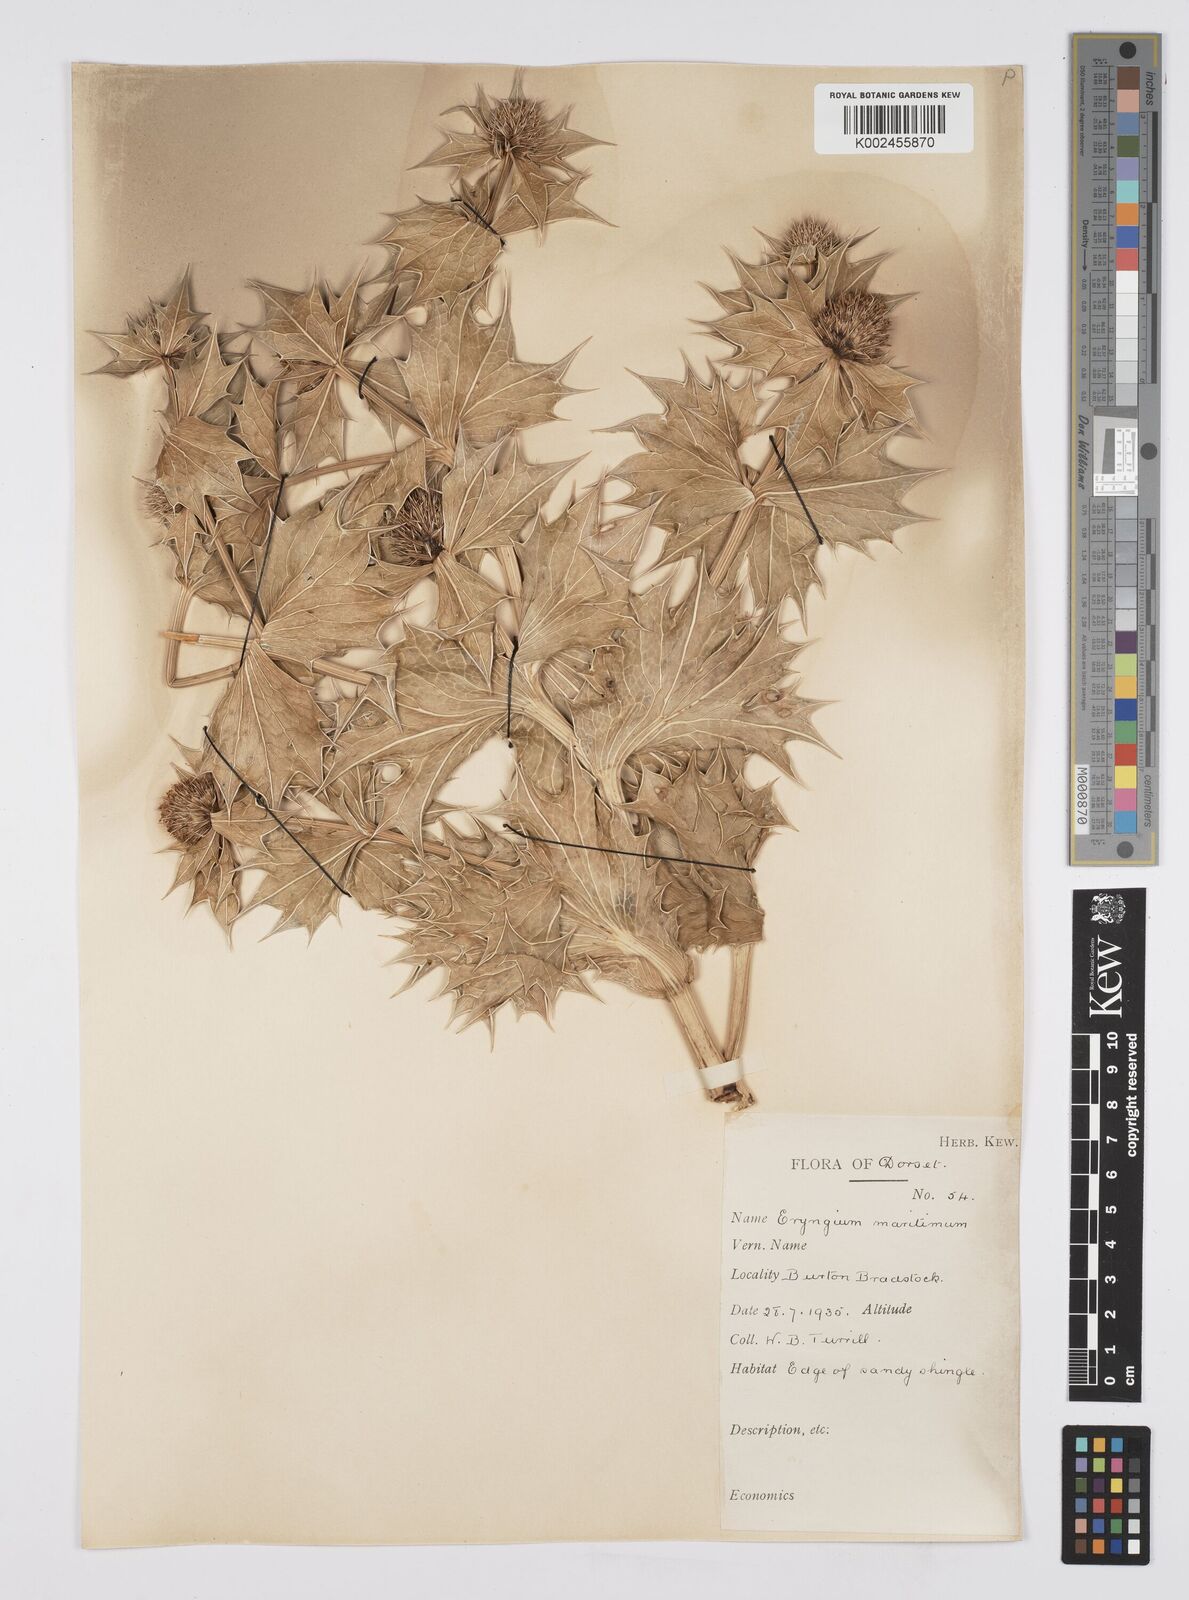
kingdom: Plantae
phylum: Tracheophyta
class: Magnoliopsida
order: Apiales
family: Apiaceae
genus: Eryngium
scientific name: Eryngium maritimum
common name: Sea-holly
